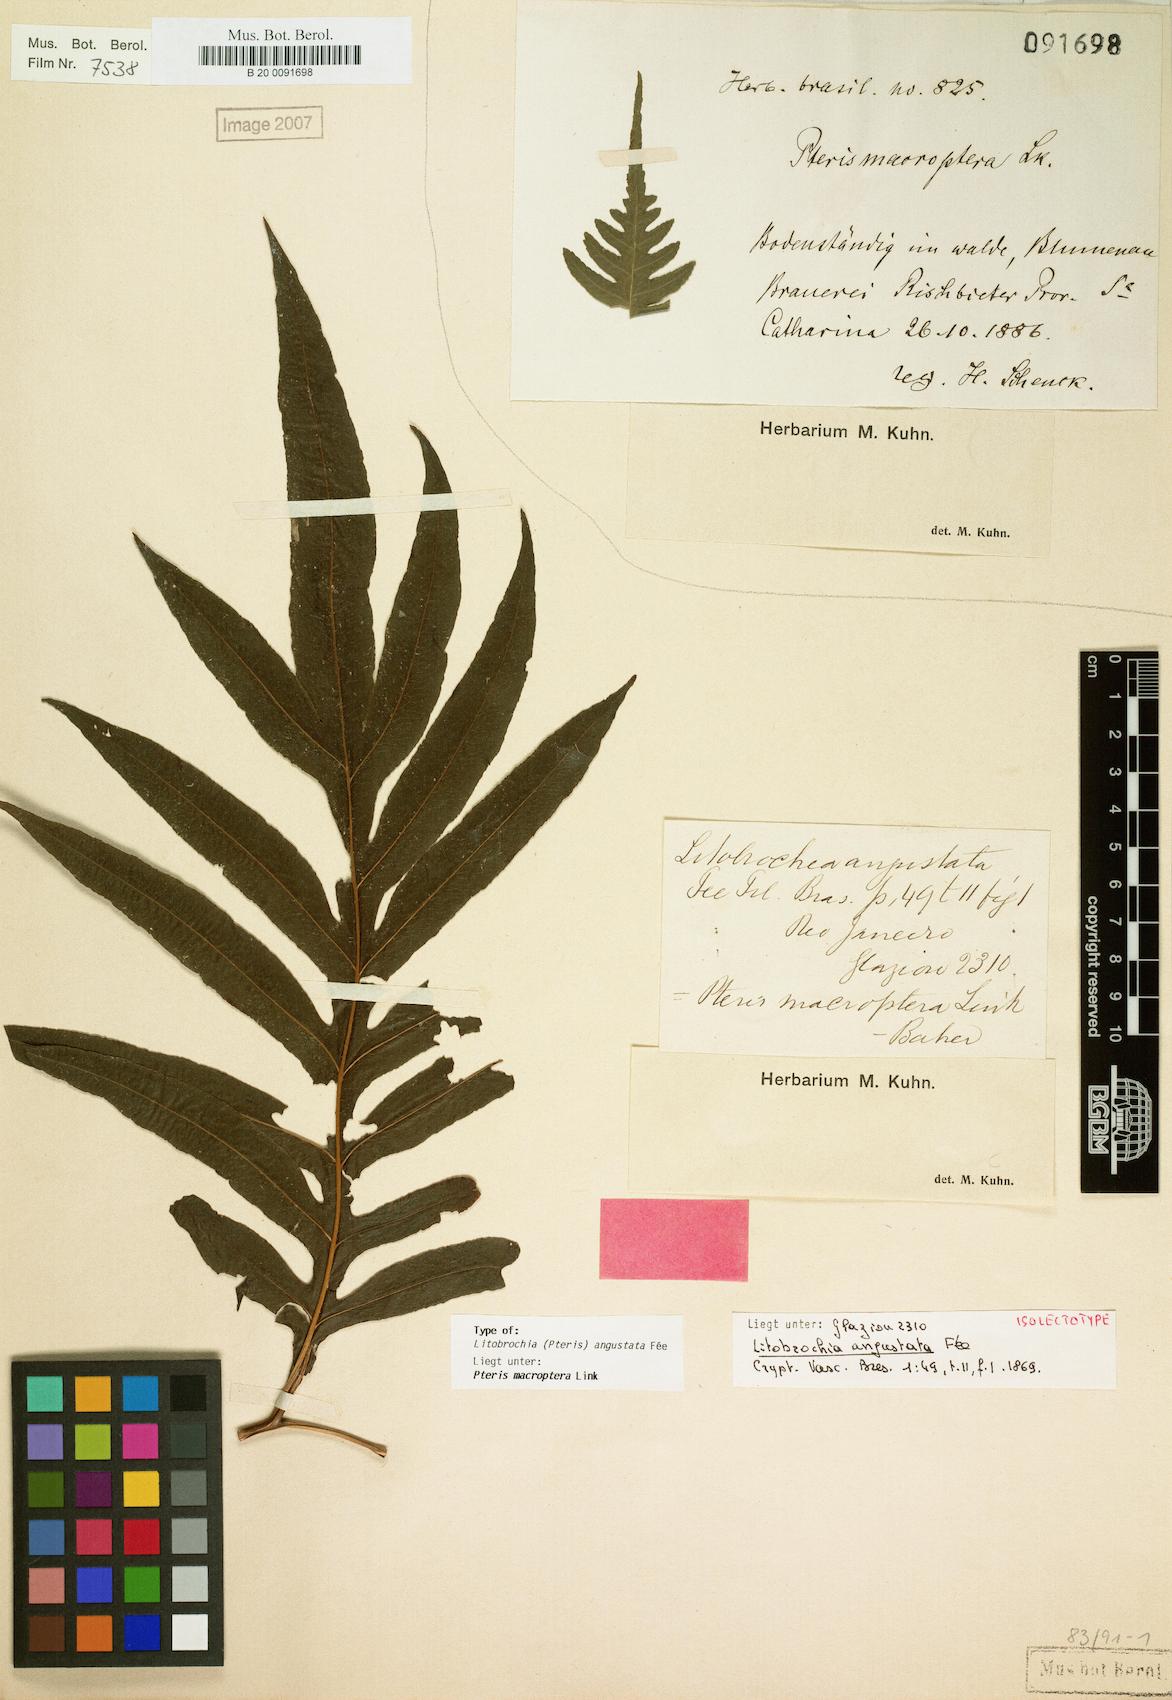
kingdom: Plantae
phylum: Tracheophyta
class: Polypodiopsida
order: Polypodiales
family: Pteridaceae
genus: Pteris
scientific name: Pteris altissima
